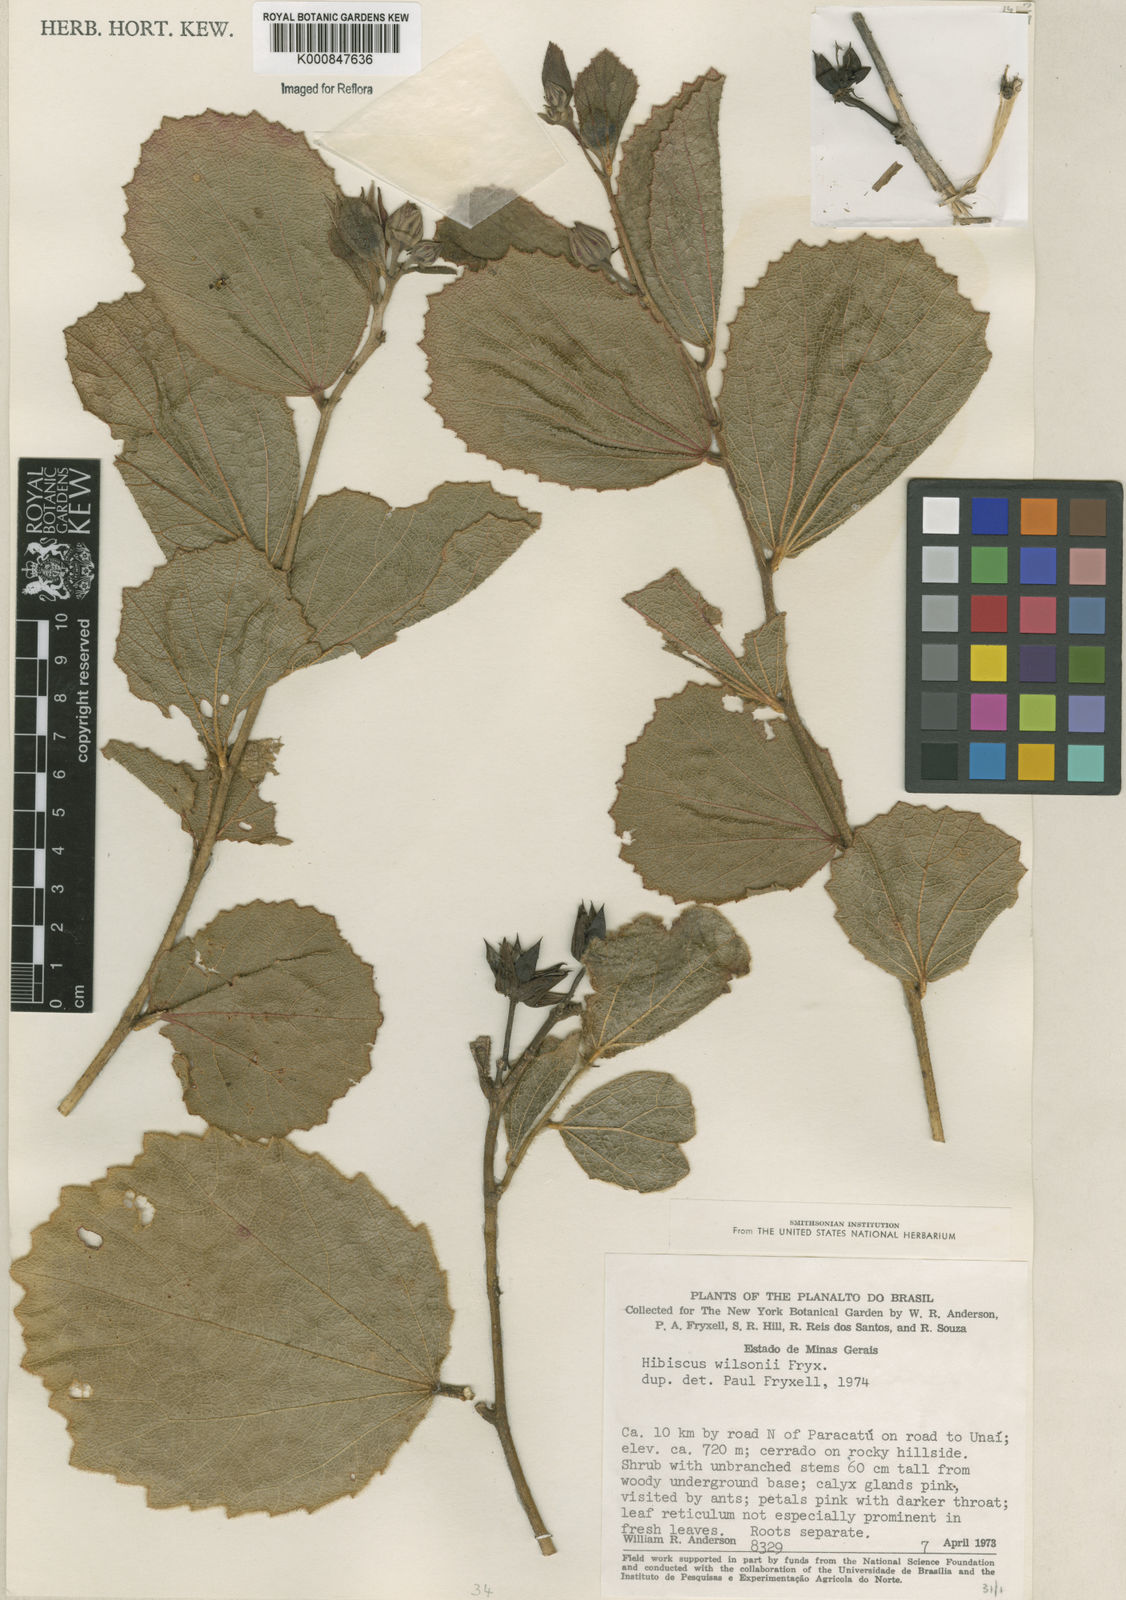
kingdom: Plantae
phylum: Tracheophyta
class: Magnoliopsida
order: Malvales
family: Malvaceae
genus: Hibiscus
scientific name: Hibiscus wilsonii
